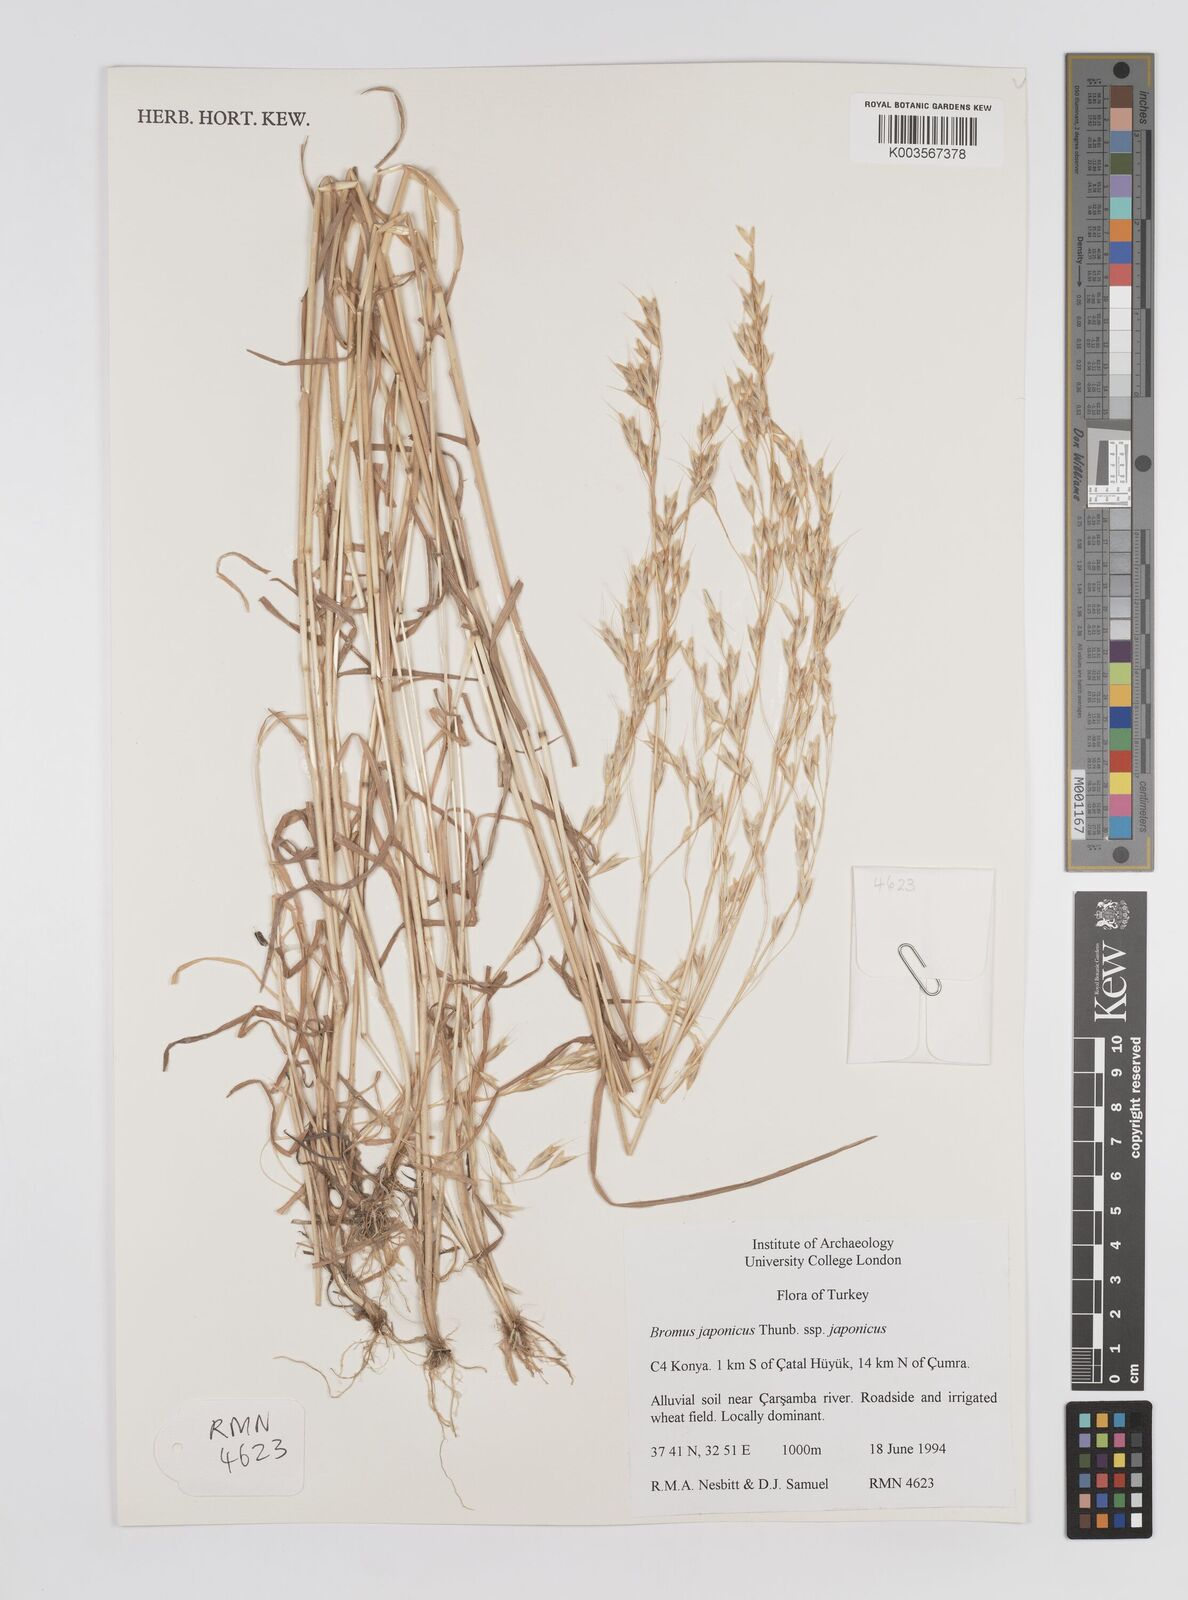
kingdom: Plantae
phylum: Tracheophyta
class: Liliopsida
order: Poales
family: Poaceae
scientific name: Poaceae
